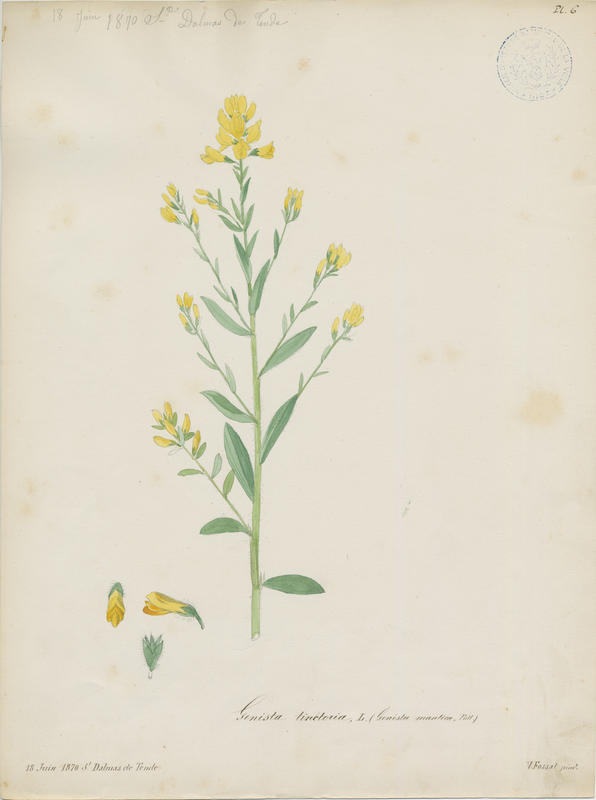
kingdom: Plantae
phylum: Tracheophyta
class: Magnoliopsida
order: Fabales
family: Fabaceae
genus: Genista
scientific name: Genista tinctoria
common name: Dyer's greenweed
